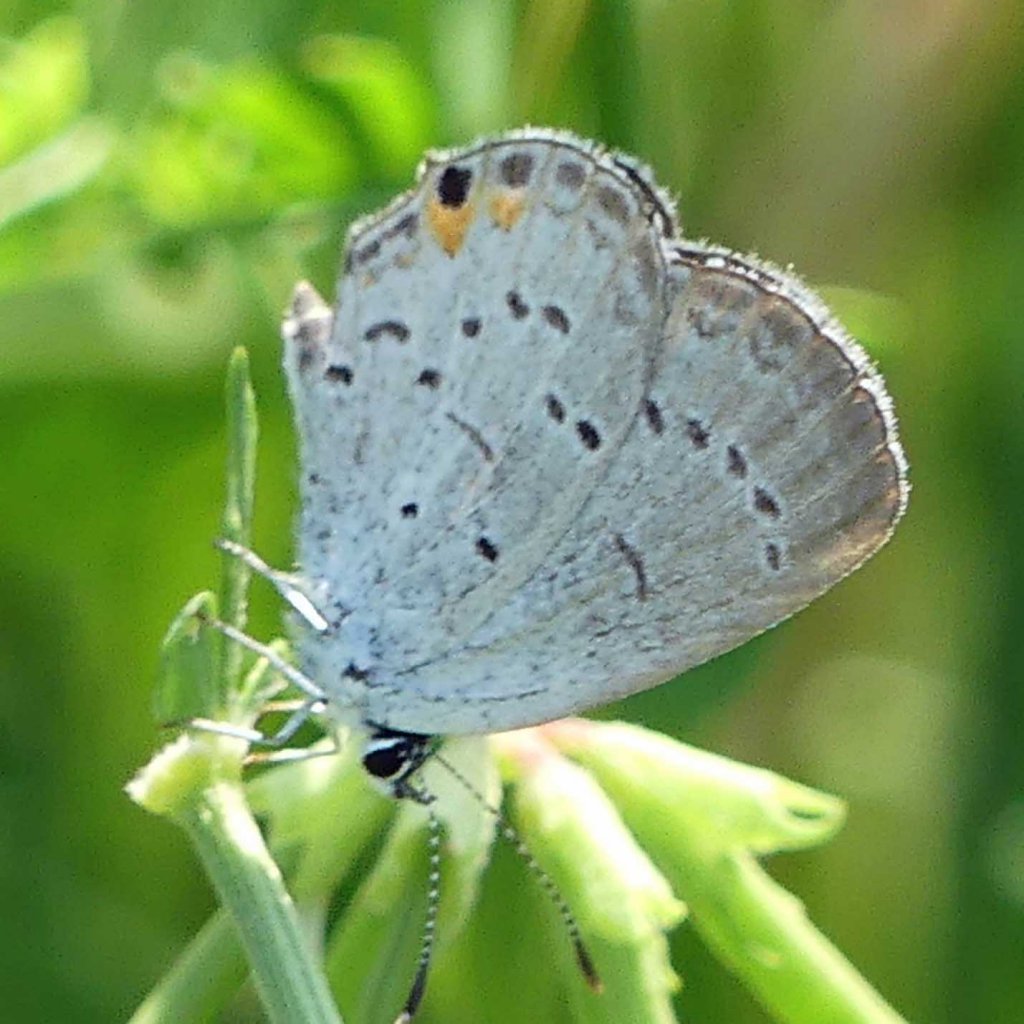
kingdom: Animalia
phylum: Arthropoda
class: Insecta
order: Lepidoptera
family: Lycaenidae
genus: Elkalyce
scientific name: Elkalyce comyntas
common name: Eastern Tailed-Blue
